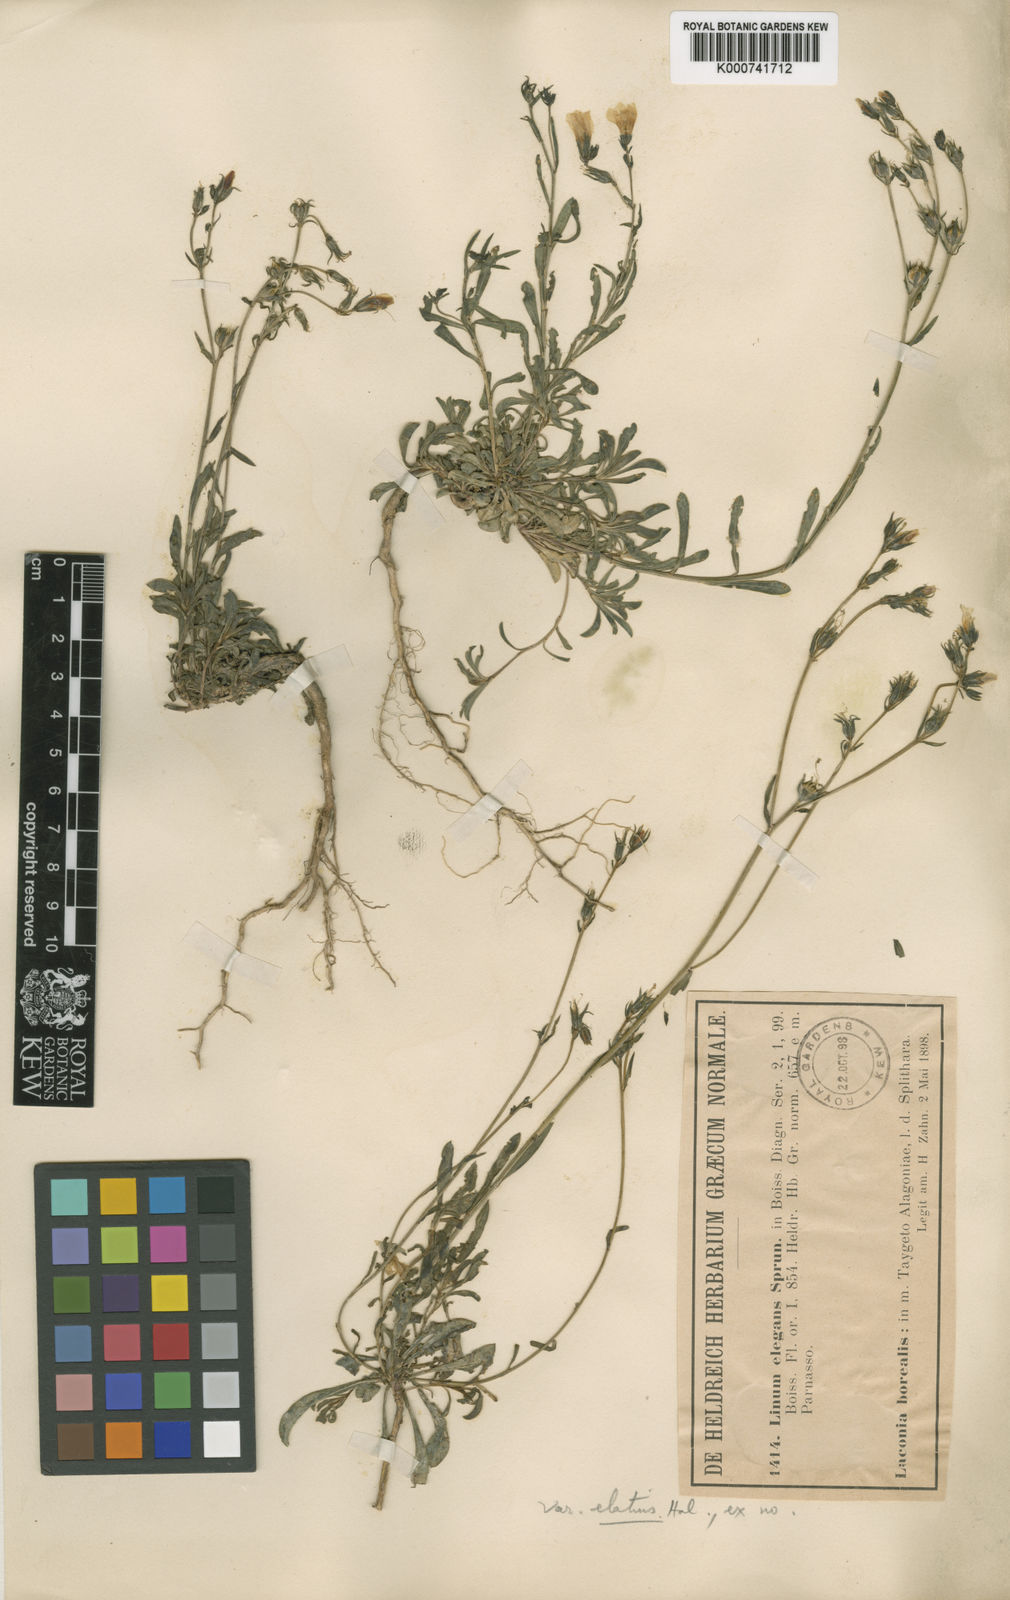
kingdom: Plantae
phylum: Tracheophyta
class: Magnoliopsida
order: Malpighiales
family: Linaceae
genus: Linum
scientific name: Linum elegans
